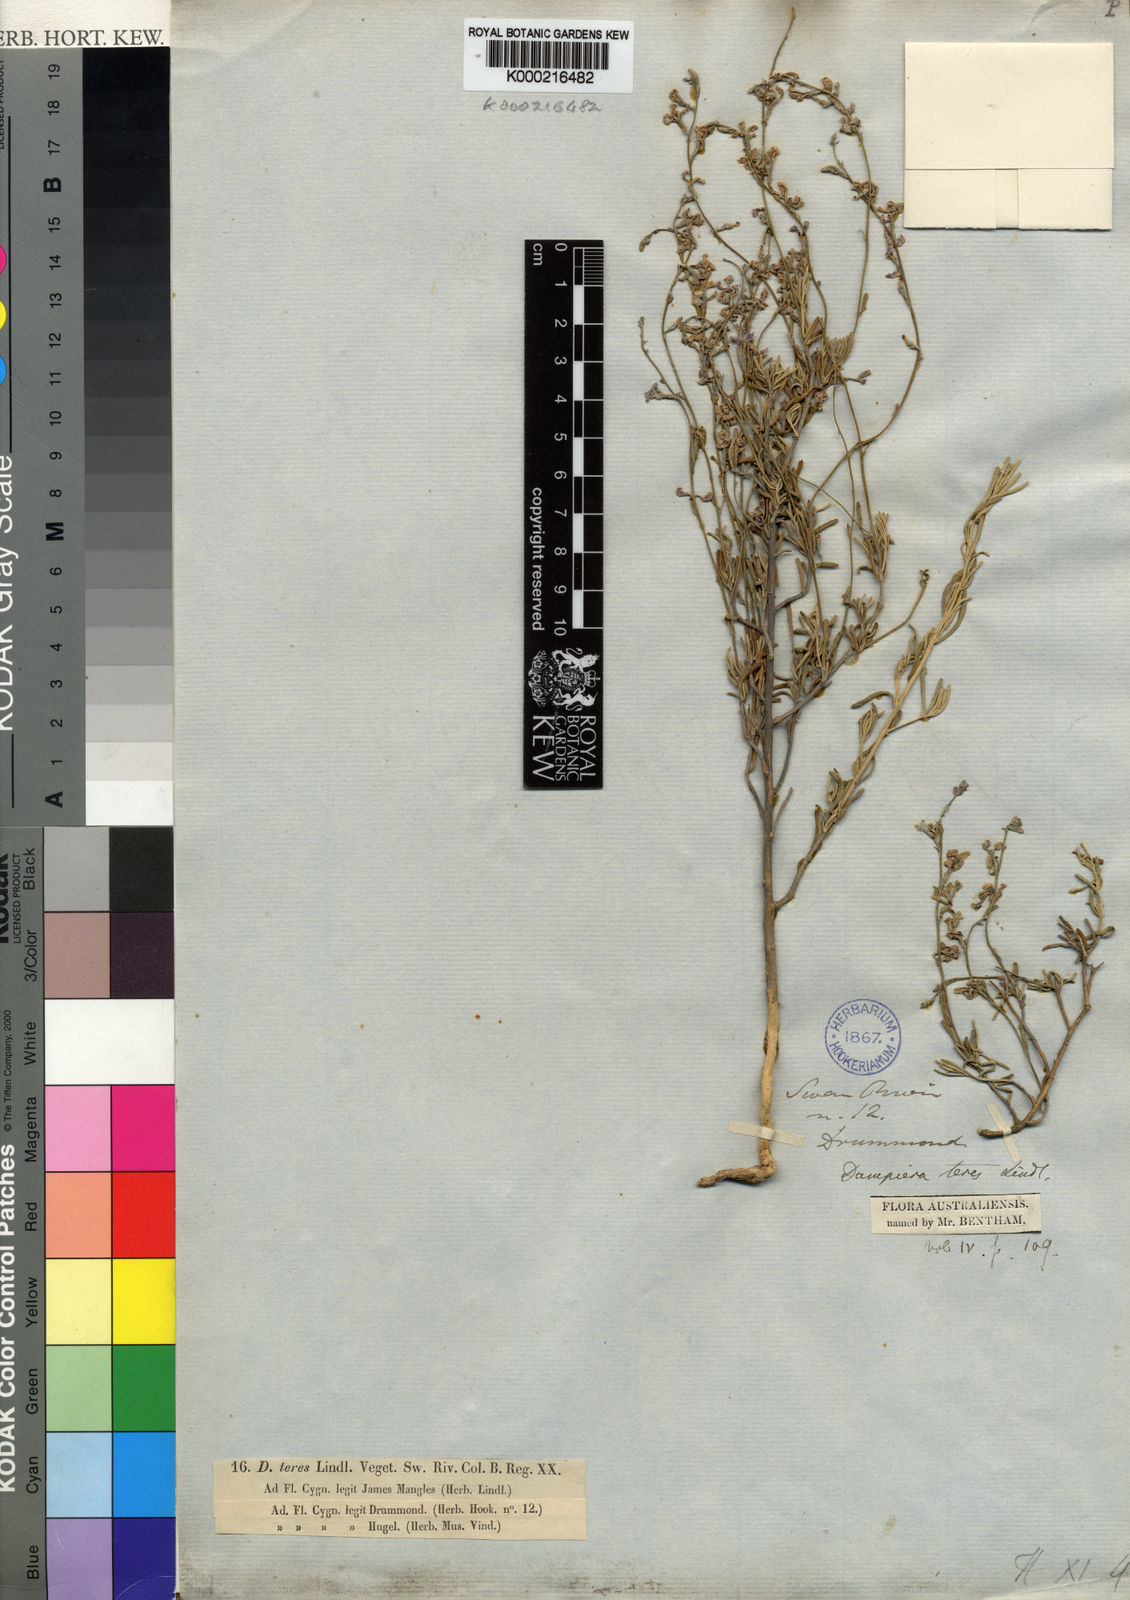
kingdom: Plantae
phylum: Tracheophyta
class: Magnoliopsida
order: Asterales
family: Goodeniaceae
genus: Dampiera
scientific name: Dampiera teres
